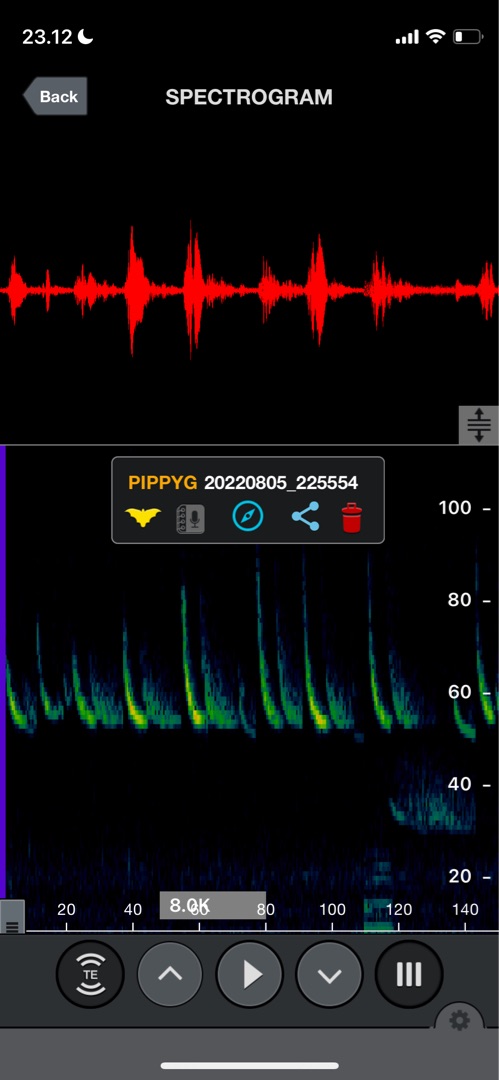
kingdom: Animalia
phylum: Chordata
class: Mammalia
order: Chiroptera
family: Vespertilionidae
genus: Pipistrellus
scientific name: Pipistrellus pygmaeus
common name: Dværgflagermus
